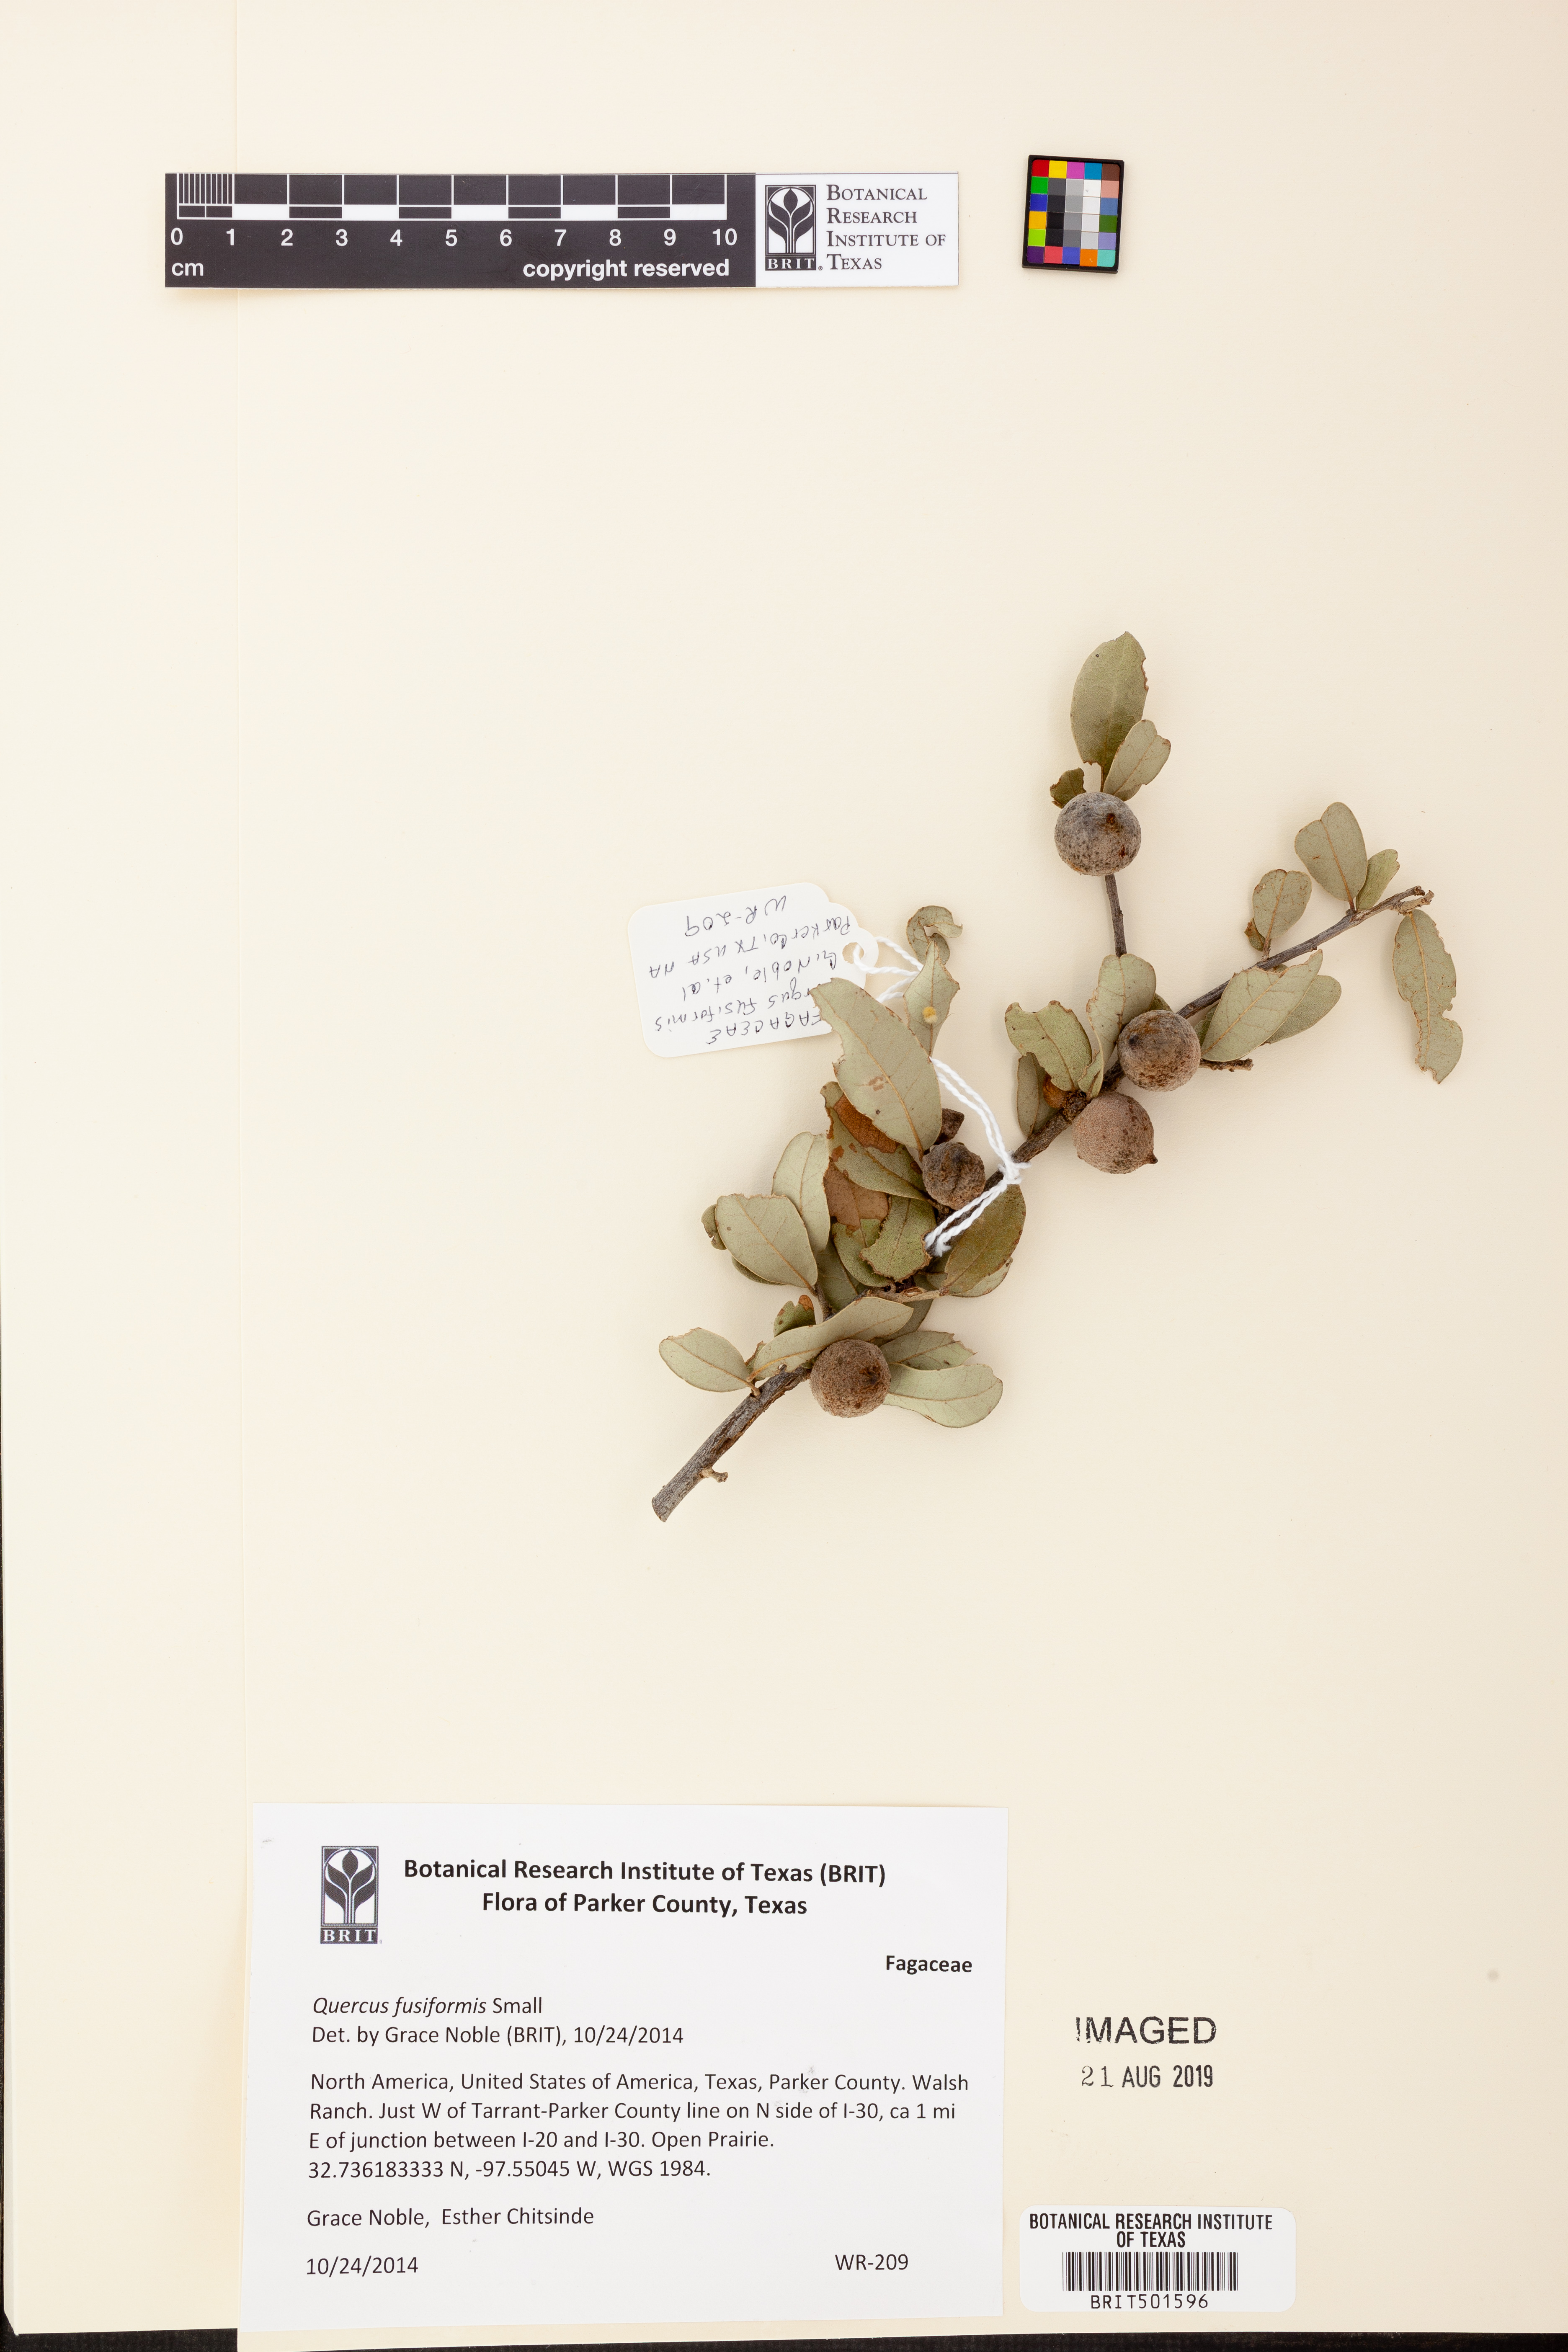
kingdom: Plantae
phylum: Tracheophyta
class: Magnoliopsida
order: Fagales
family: Fagaceae
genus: Quercus
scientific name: Quercus fusiformis
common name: Texas live oak
